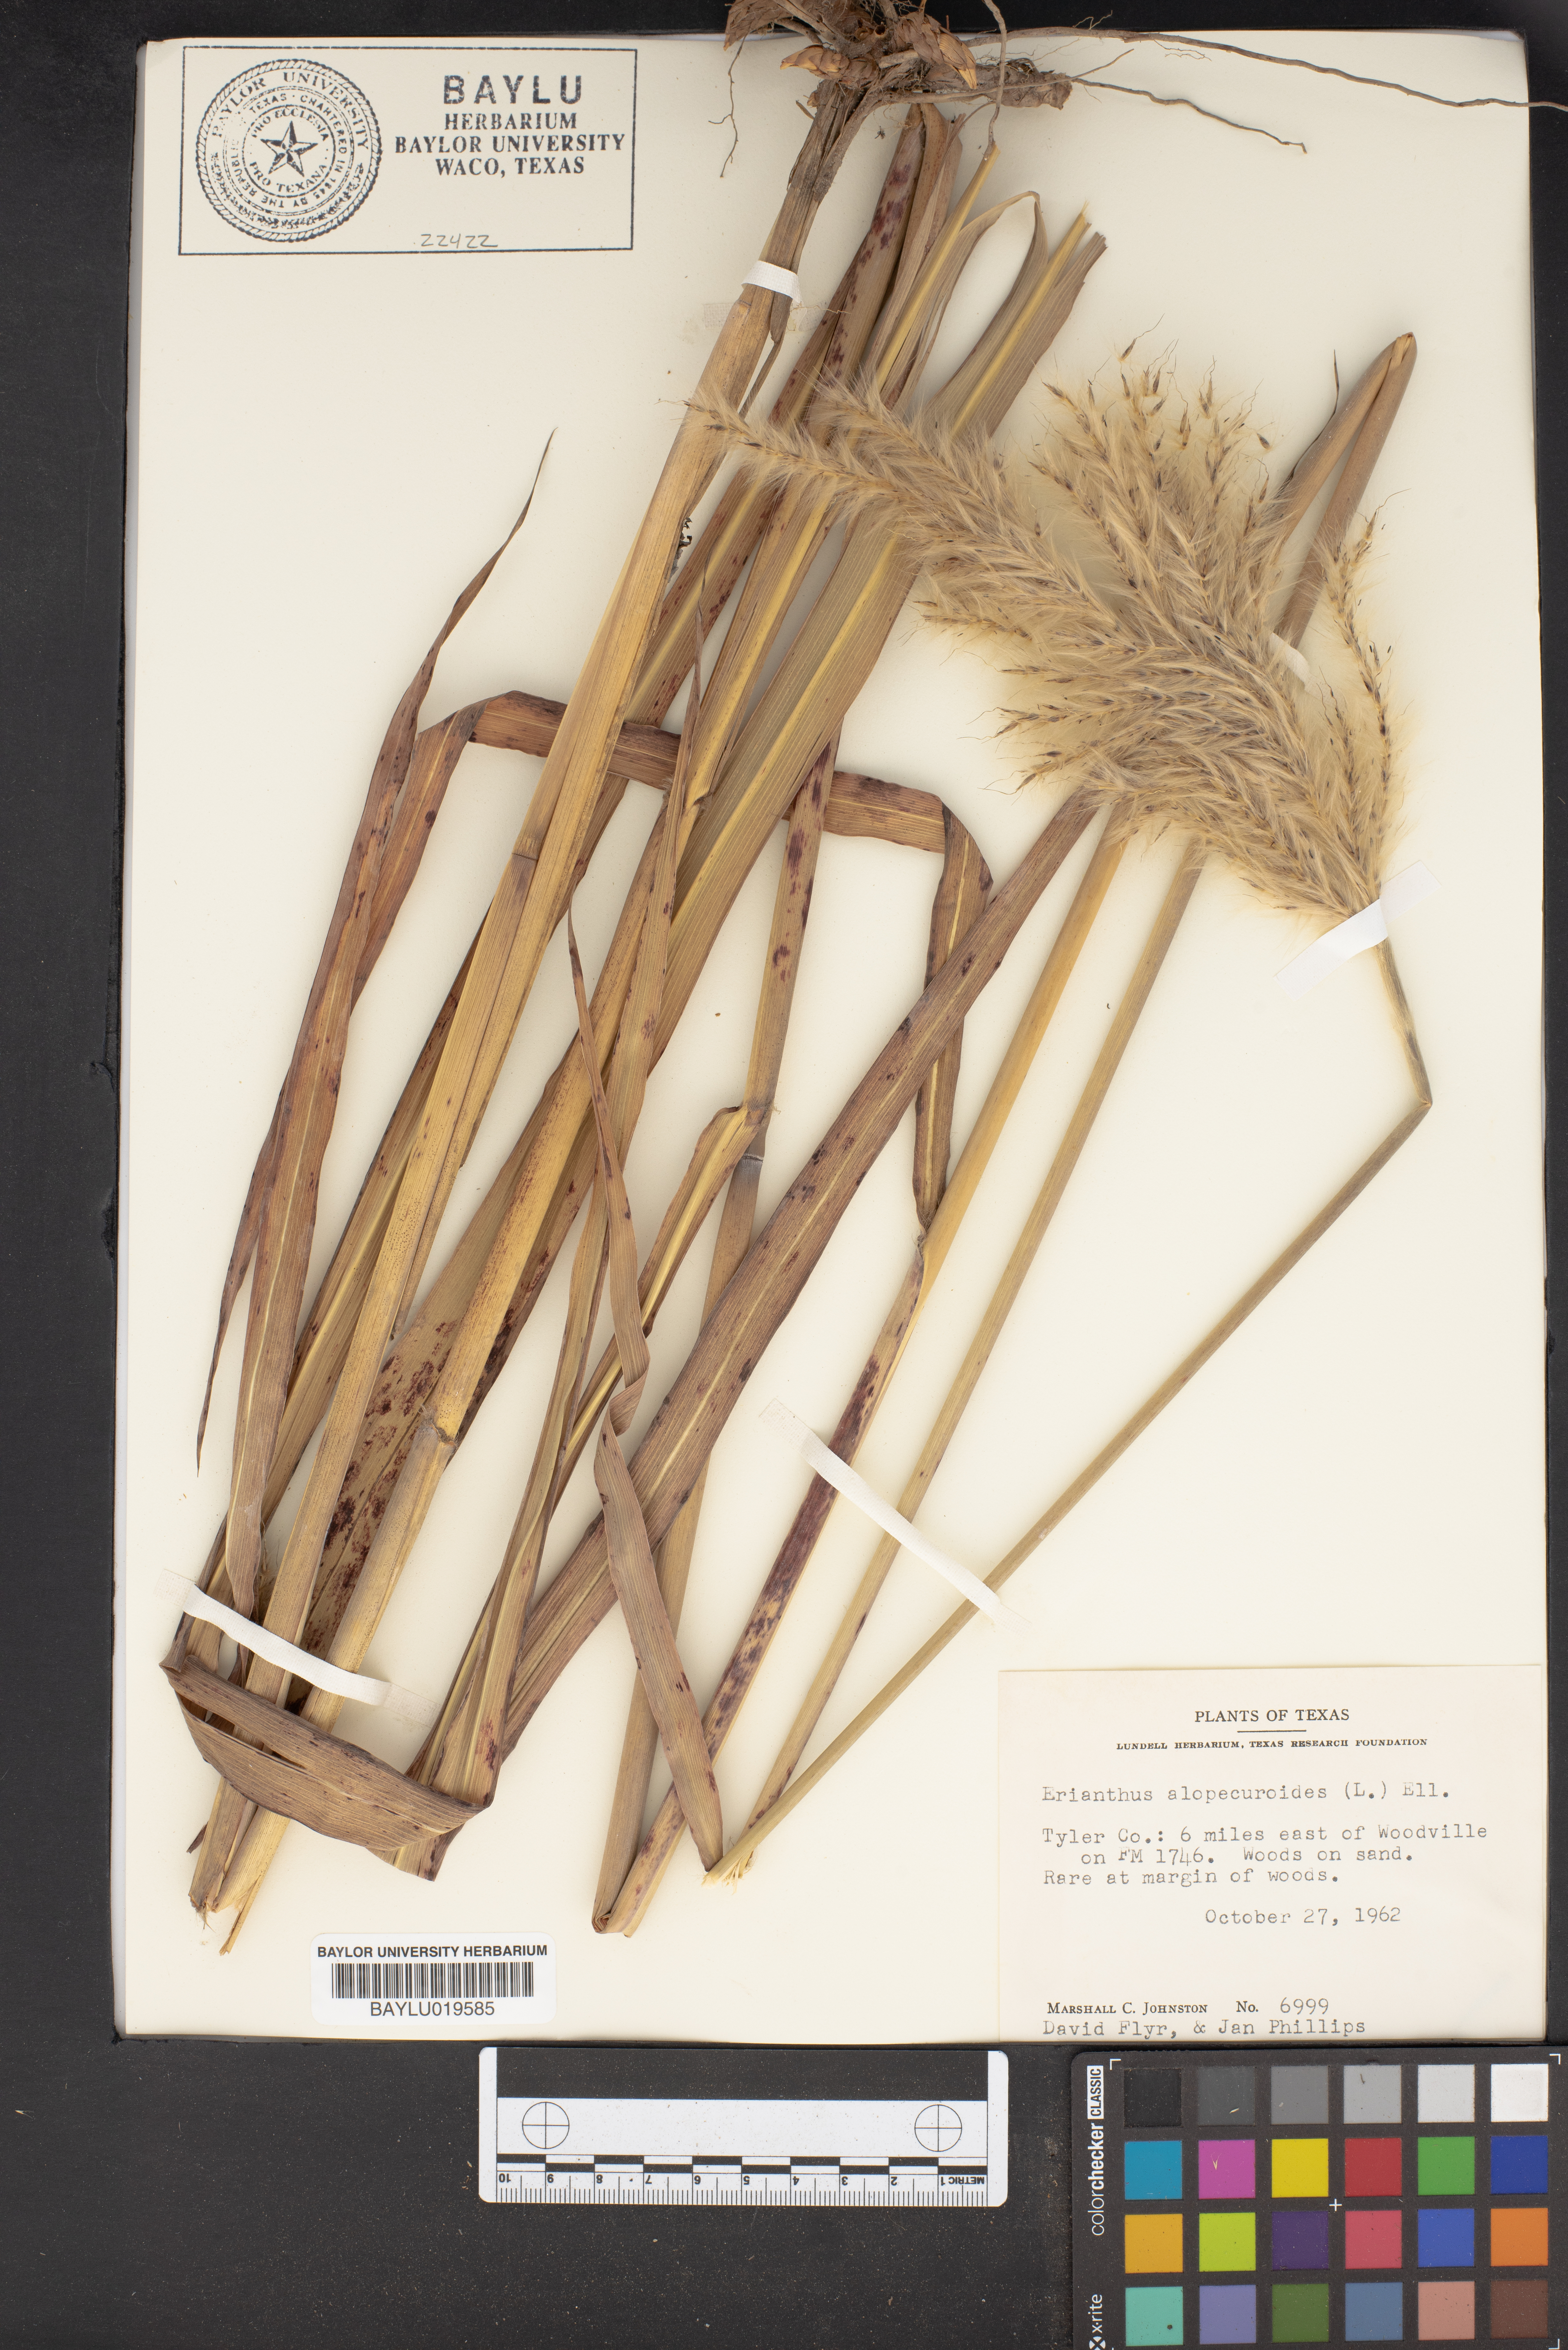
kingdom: Plantae
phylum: Tracheophyta
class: Liliopsida
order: Poales
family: Poaceae
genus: Erianthus
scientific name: Erianthus alopecuroides
